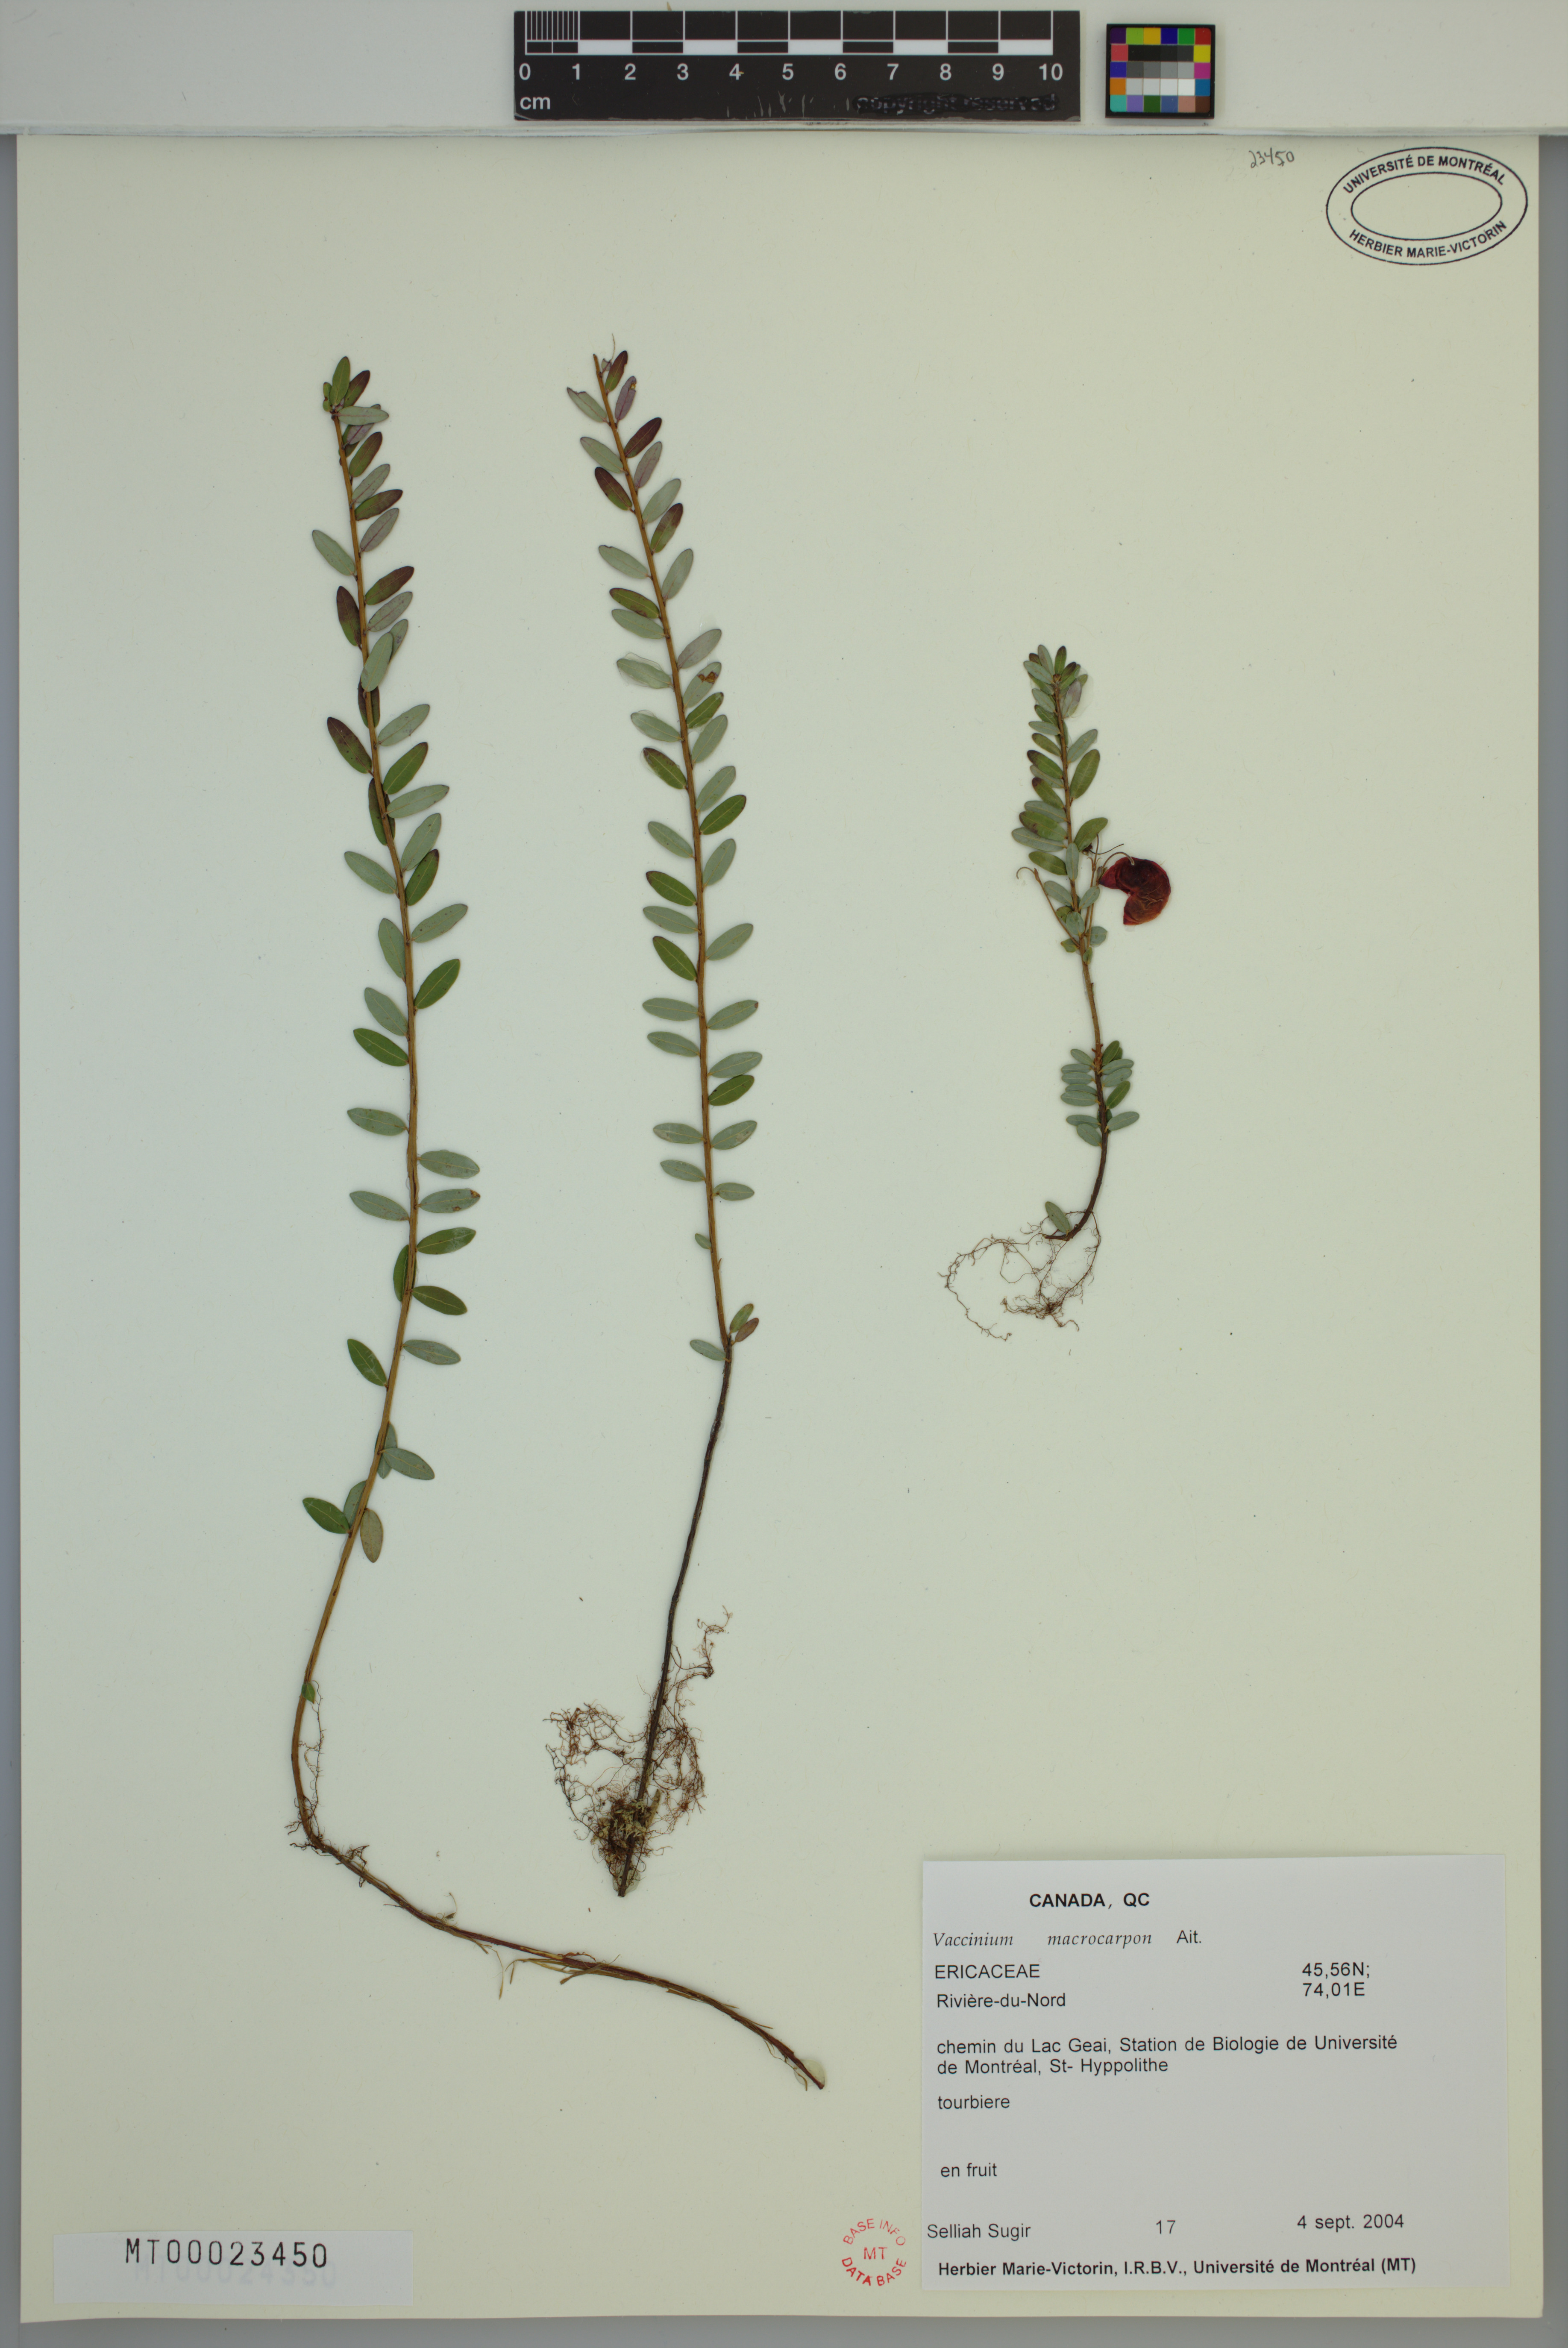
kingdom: Plantae
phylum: Tracheophyta
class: Magnoliopsida
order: Ericales
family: Ericaceae
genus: Vaccinium
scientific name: Vaccinium macrocarpon
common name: American cranberry
